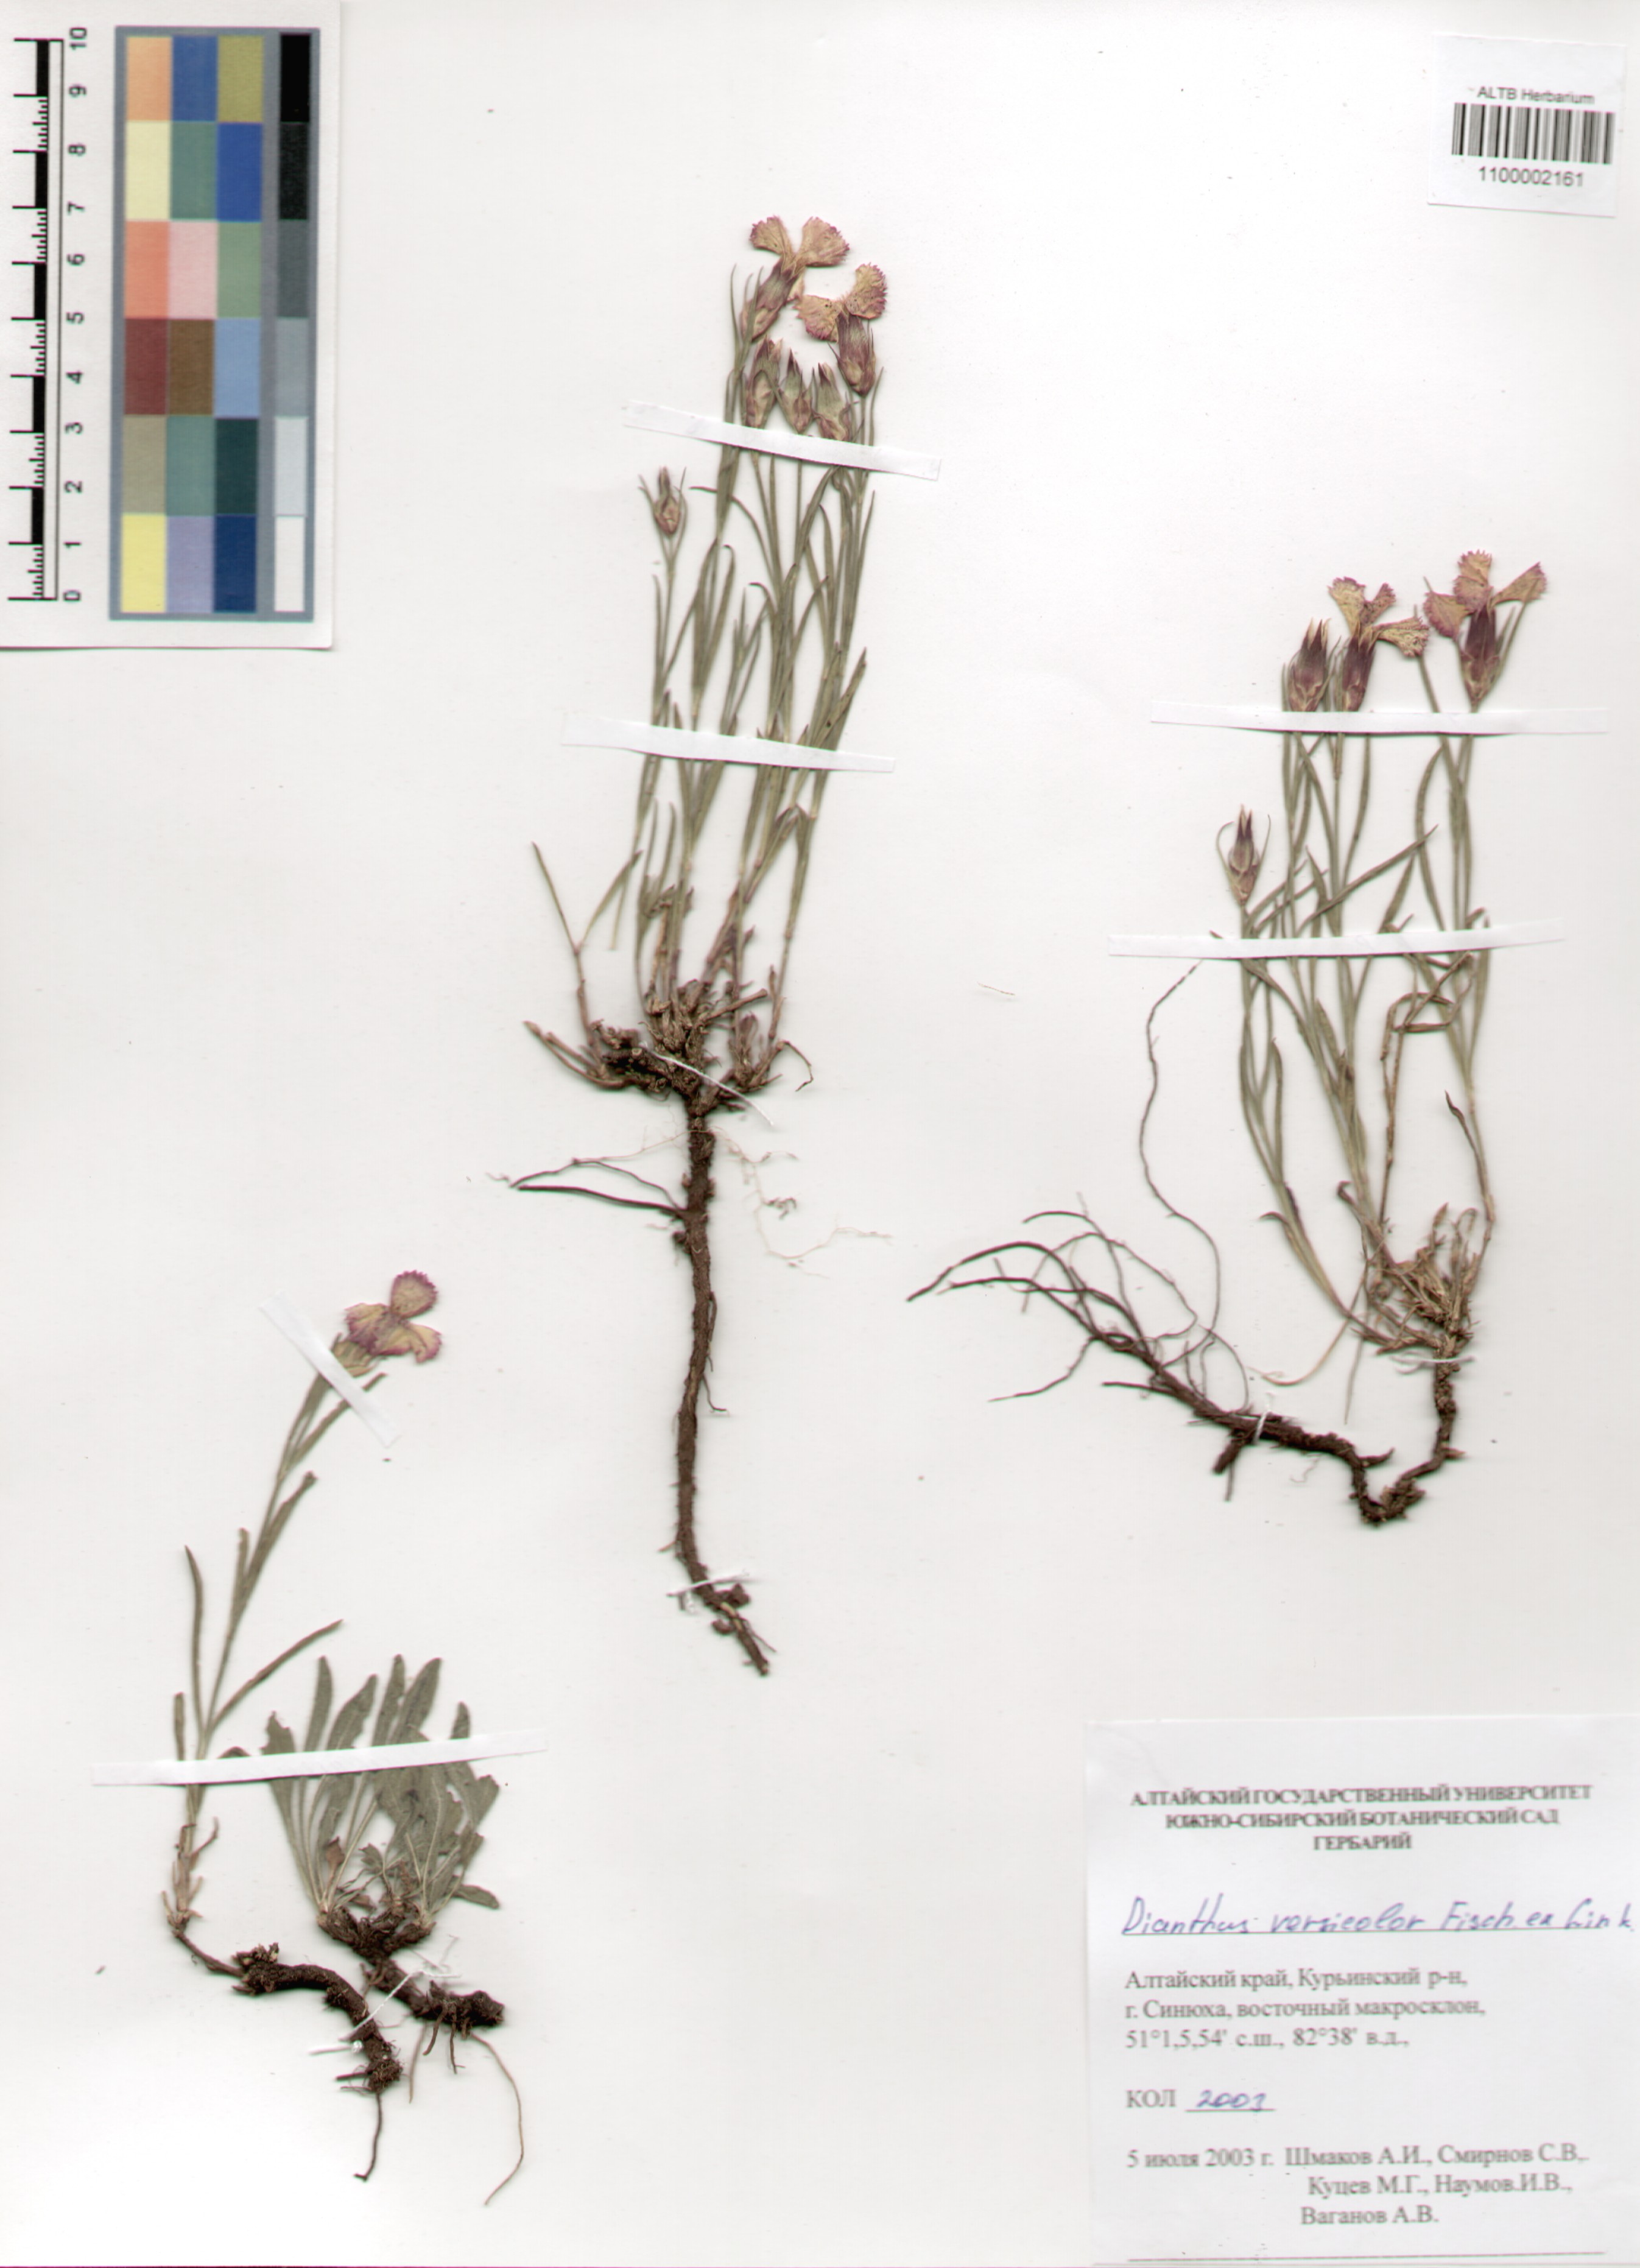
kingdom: Plantae
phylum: Tracheophyta
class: Magnoliopsida
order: Caryophyllales
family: Caryophyllaceae
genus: Dianthus
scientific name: Dianthus chinensis
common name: Rainbow pink
